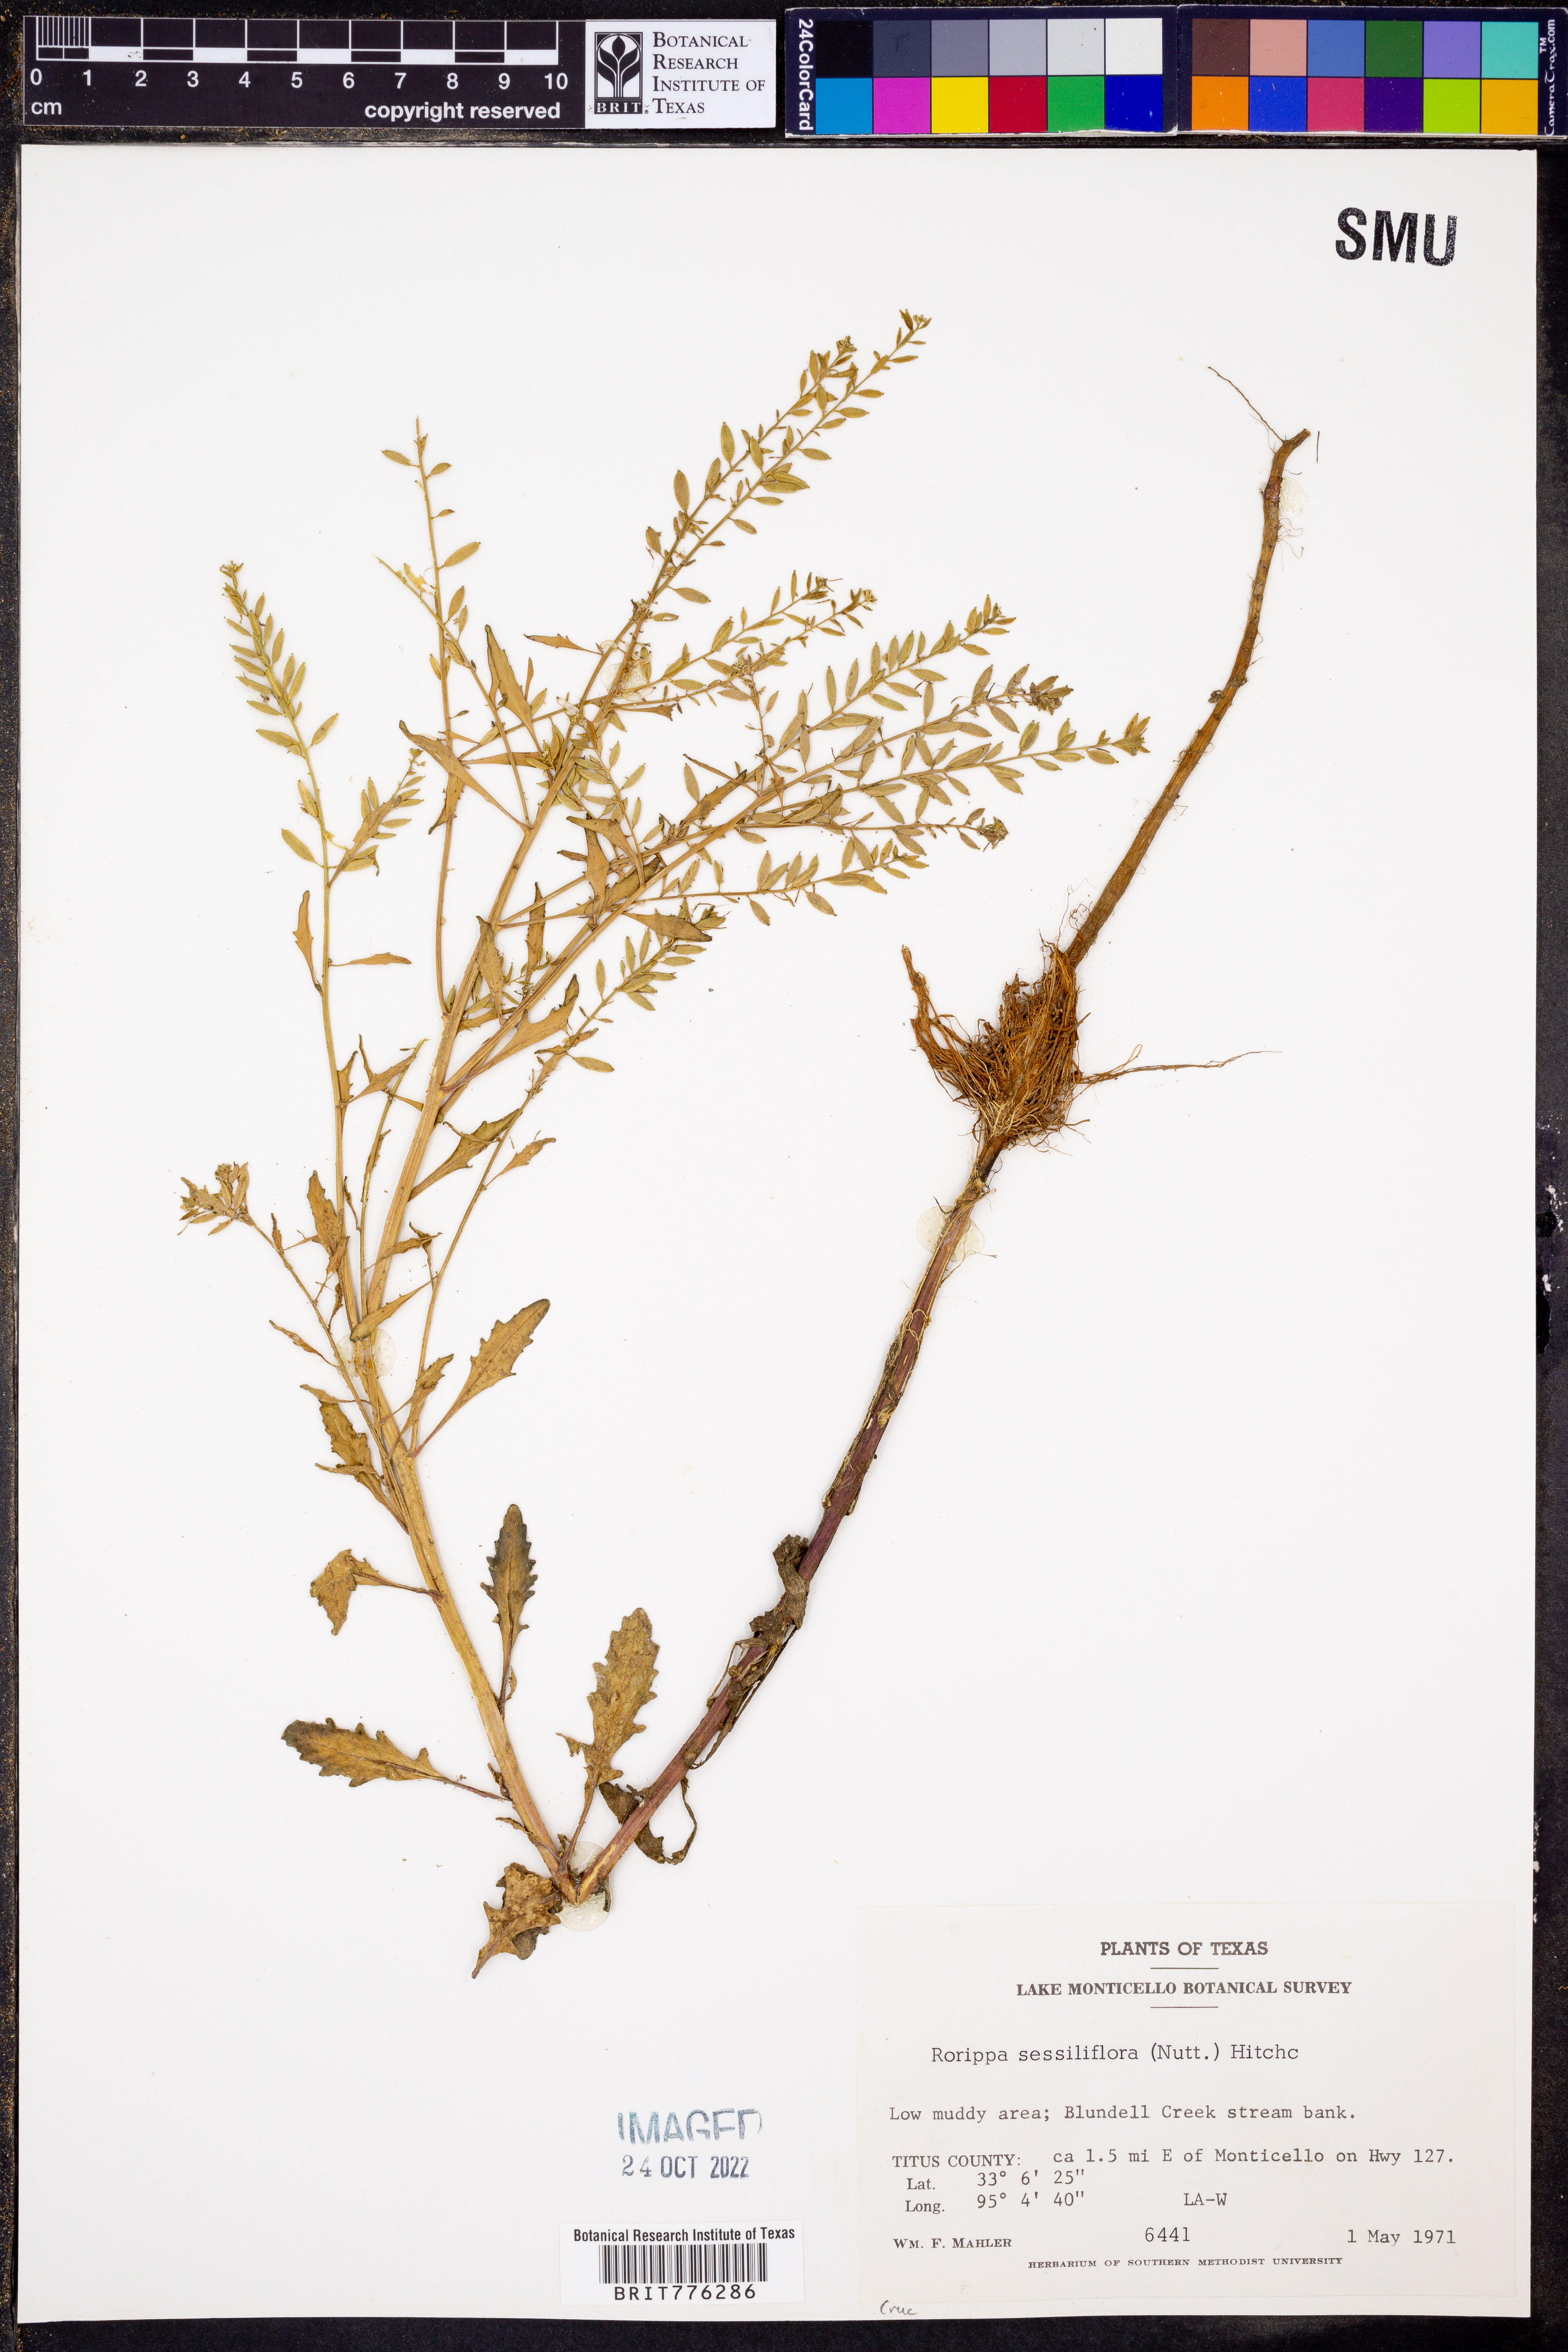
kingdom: Plantae
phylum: Tracheophyta
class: Magnoliopsida
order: Brassicales
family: Brassicaceae
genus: Rorippa
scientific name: Rorippa sessiliflora
